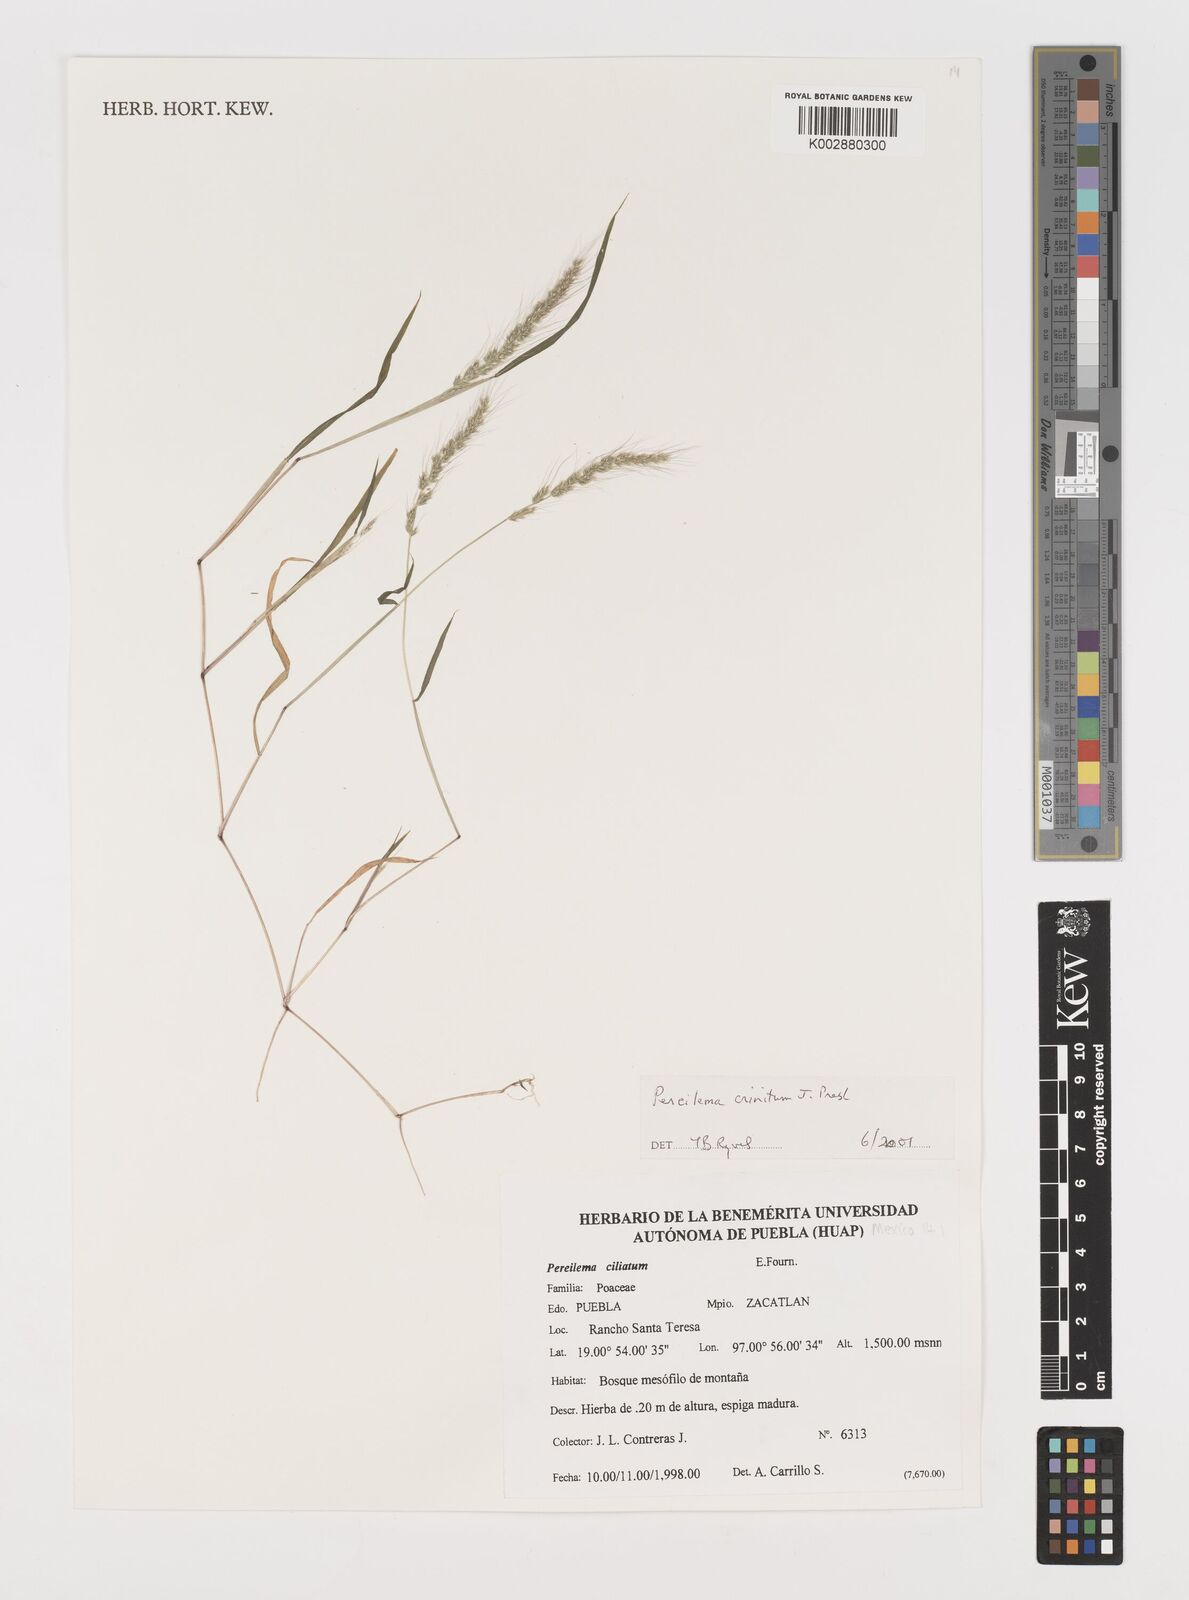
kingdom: Plantae
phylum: Tracheophyta
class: Liliopsida
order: Poales
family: Poaceae
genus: Muhlenbergia
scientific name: Muhlenbergia pereilema
